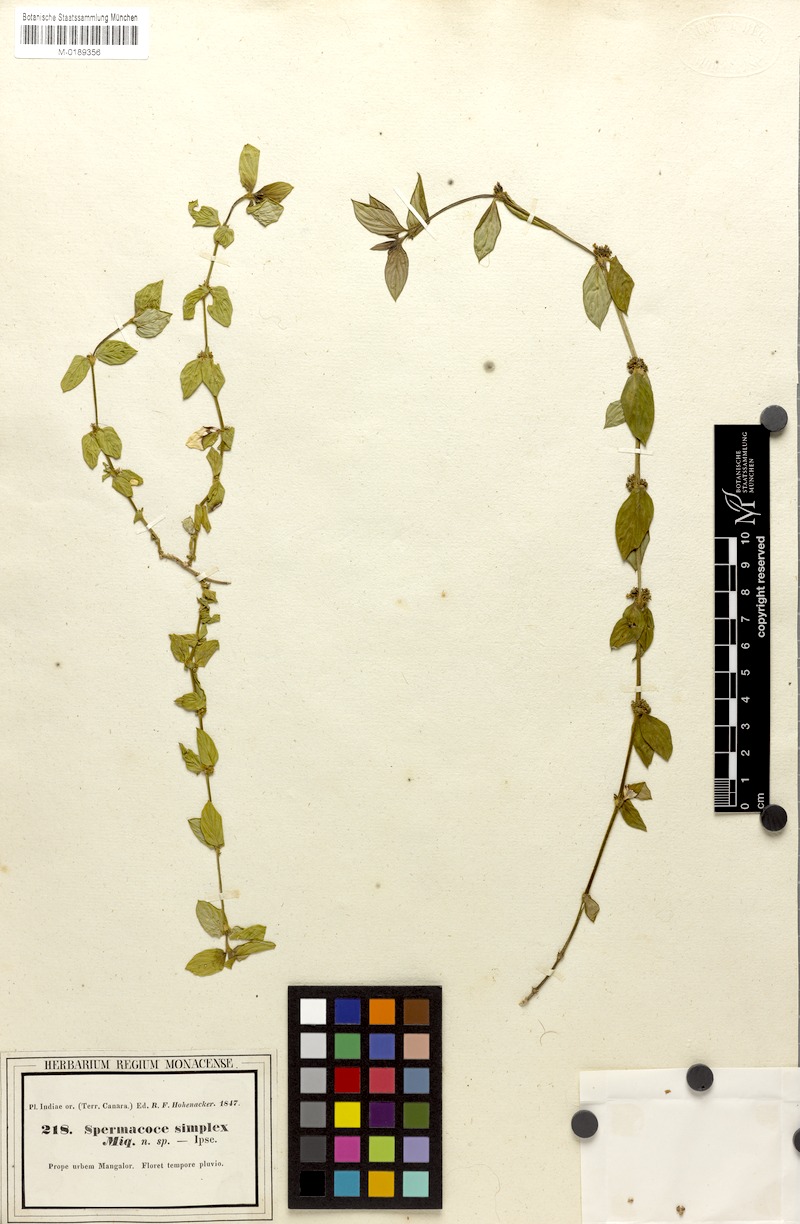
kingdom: Plantae
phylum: Tracheophyta
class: Magnoliopsida
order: Gentianales
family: Rubiaceae
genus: Diodia
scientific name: Diodia simplex
